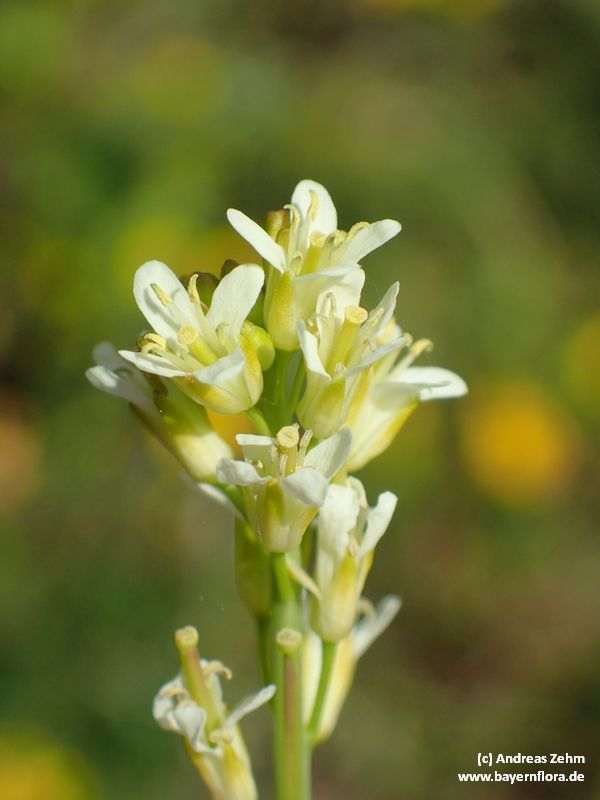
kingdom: Plantae
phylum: Tracheophyta
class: Magnoliopsida
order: Brassicales
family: Brassicaceae
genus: Turritis
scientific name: Turritis glabra
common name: Tower rockcress
